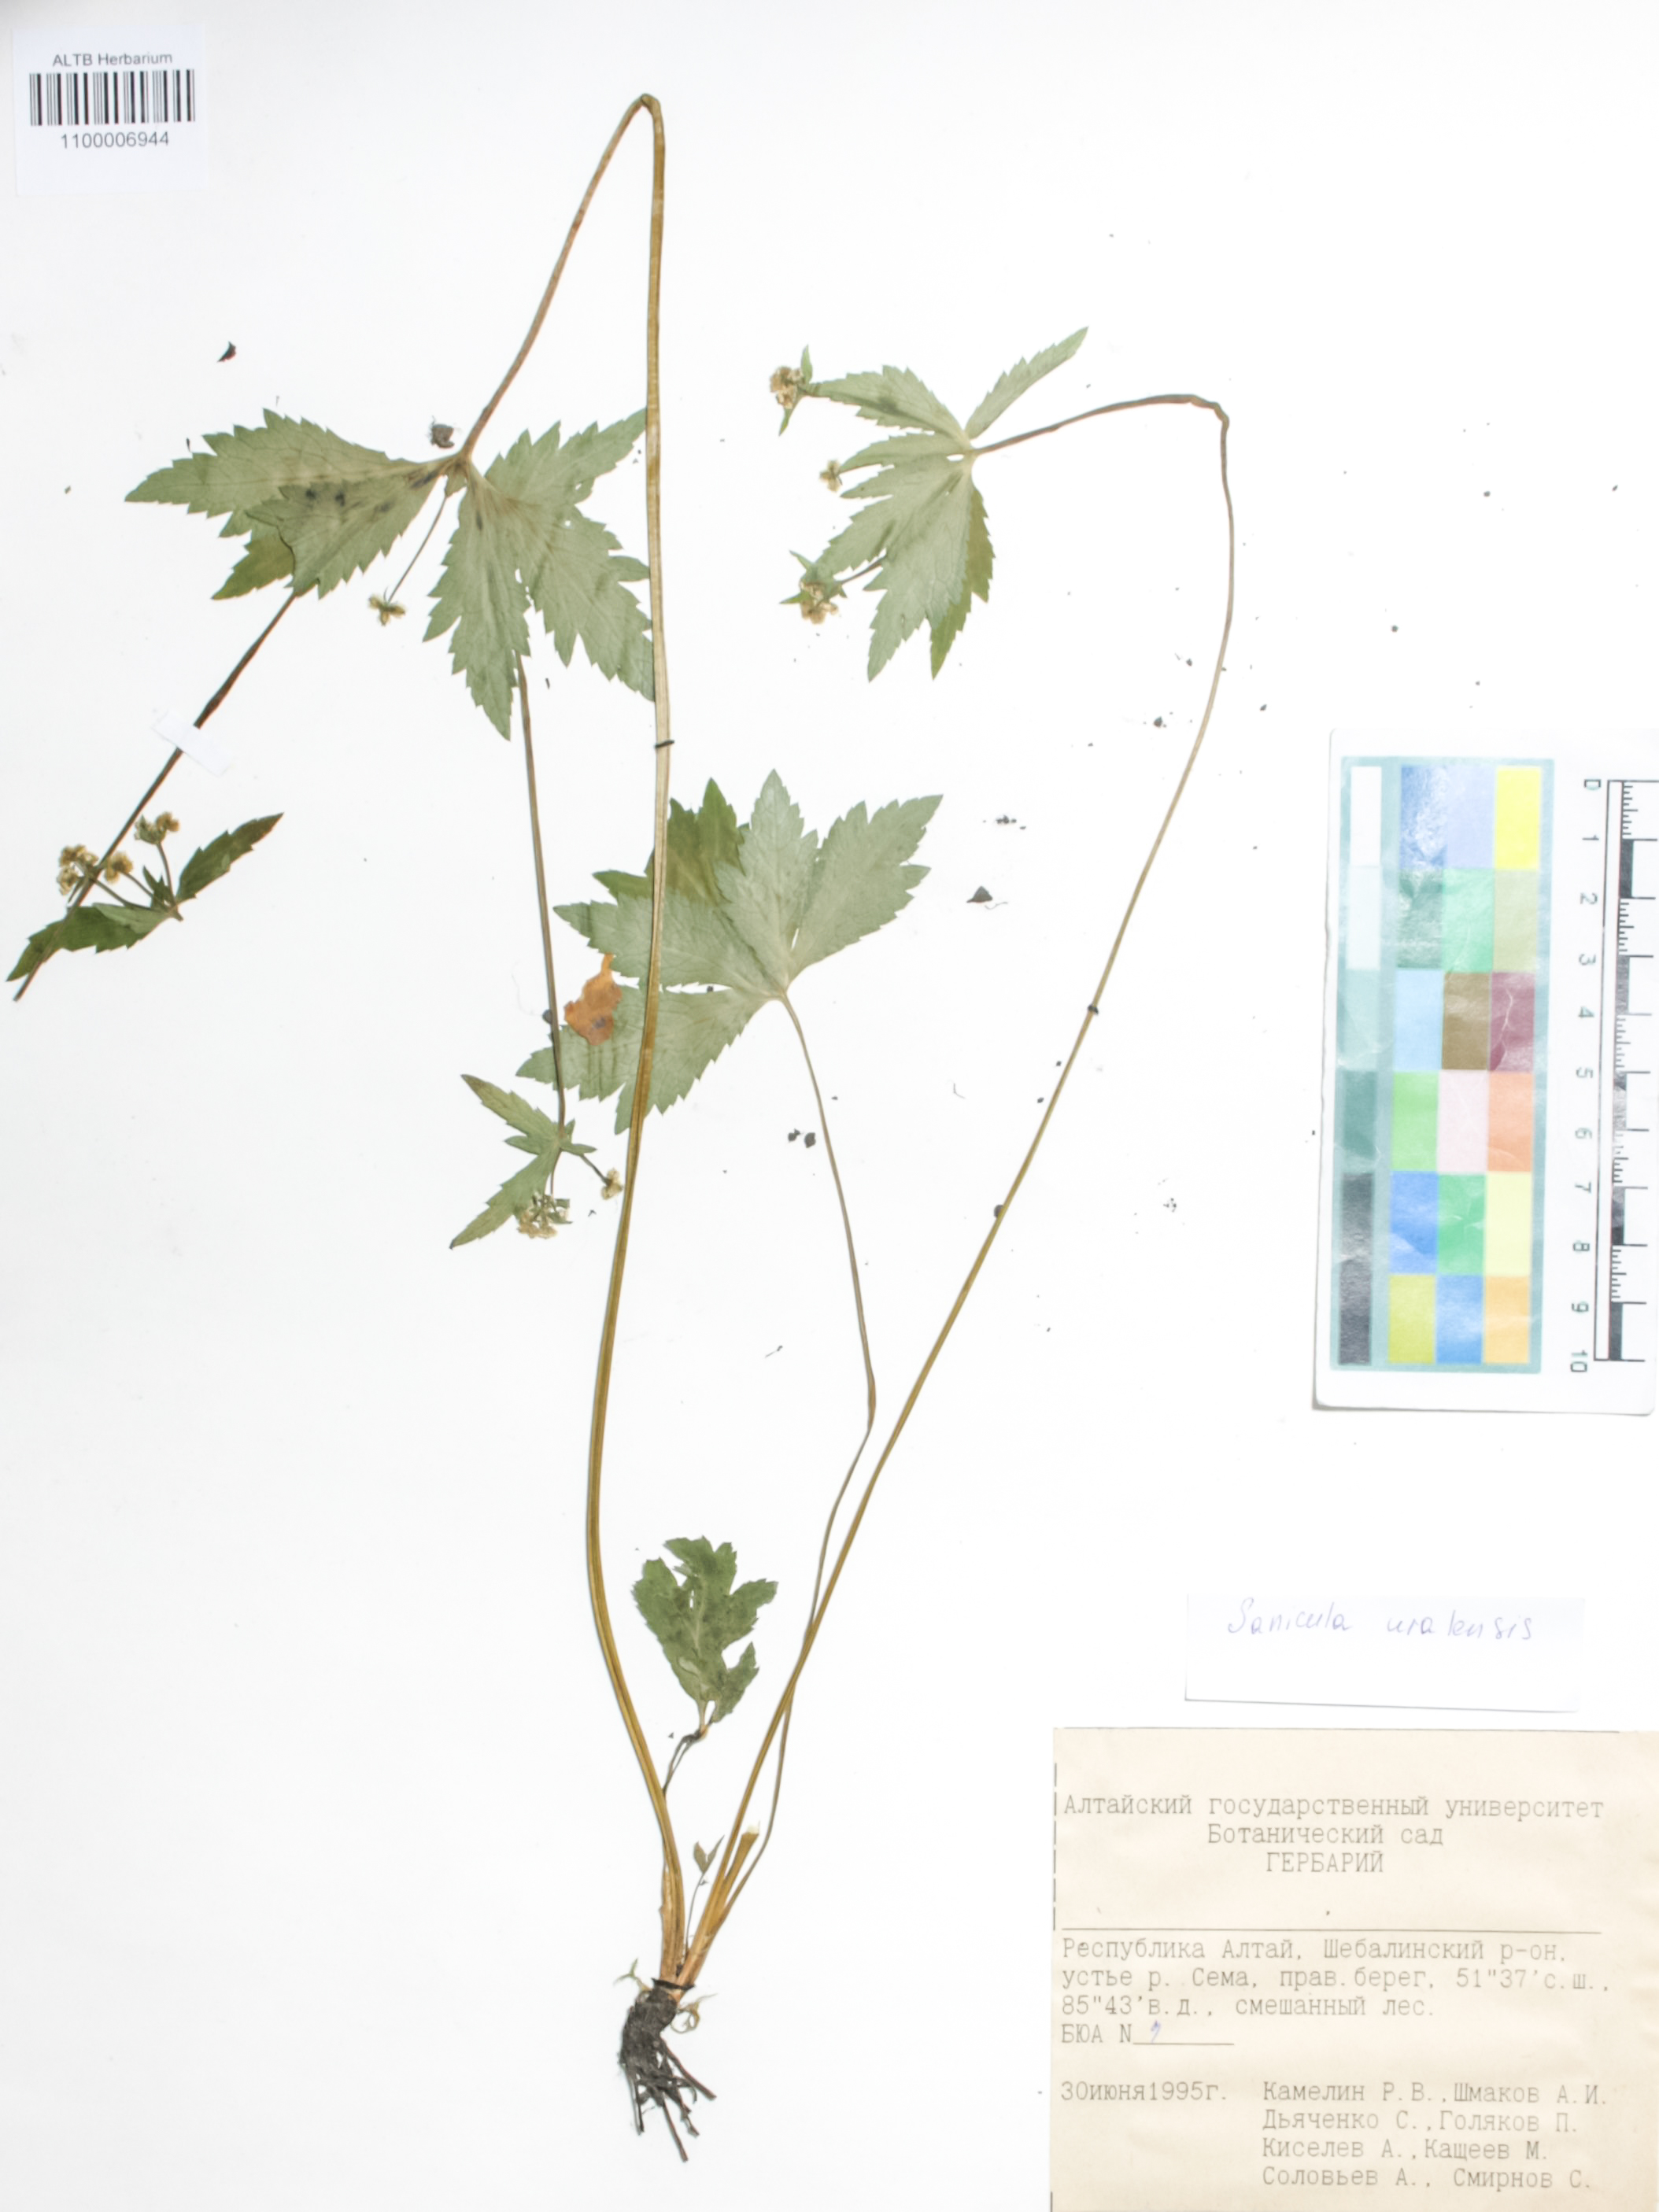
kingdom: Plantae
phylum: Tracheophyta
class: Magnoliopsida
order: Apiales
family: Apiaceae
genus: Sanicula
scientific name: Sanicula giraldii
